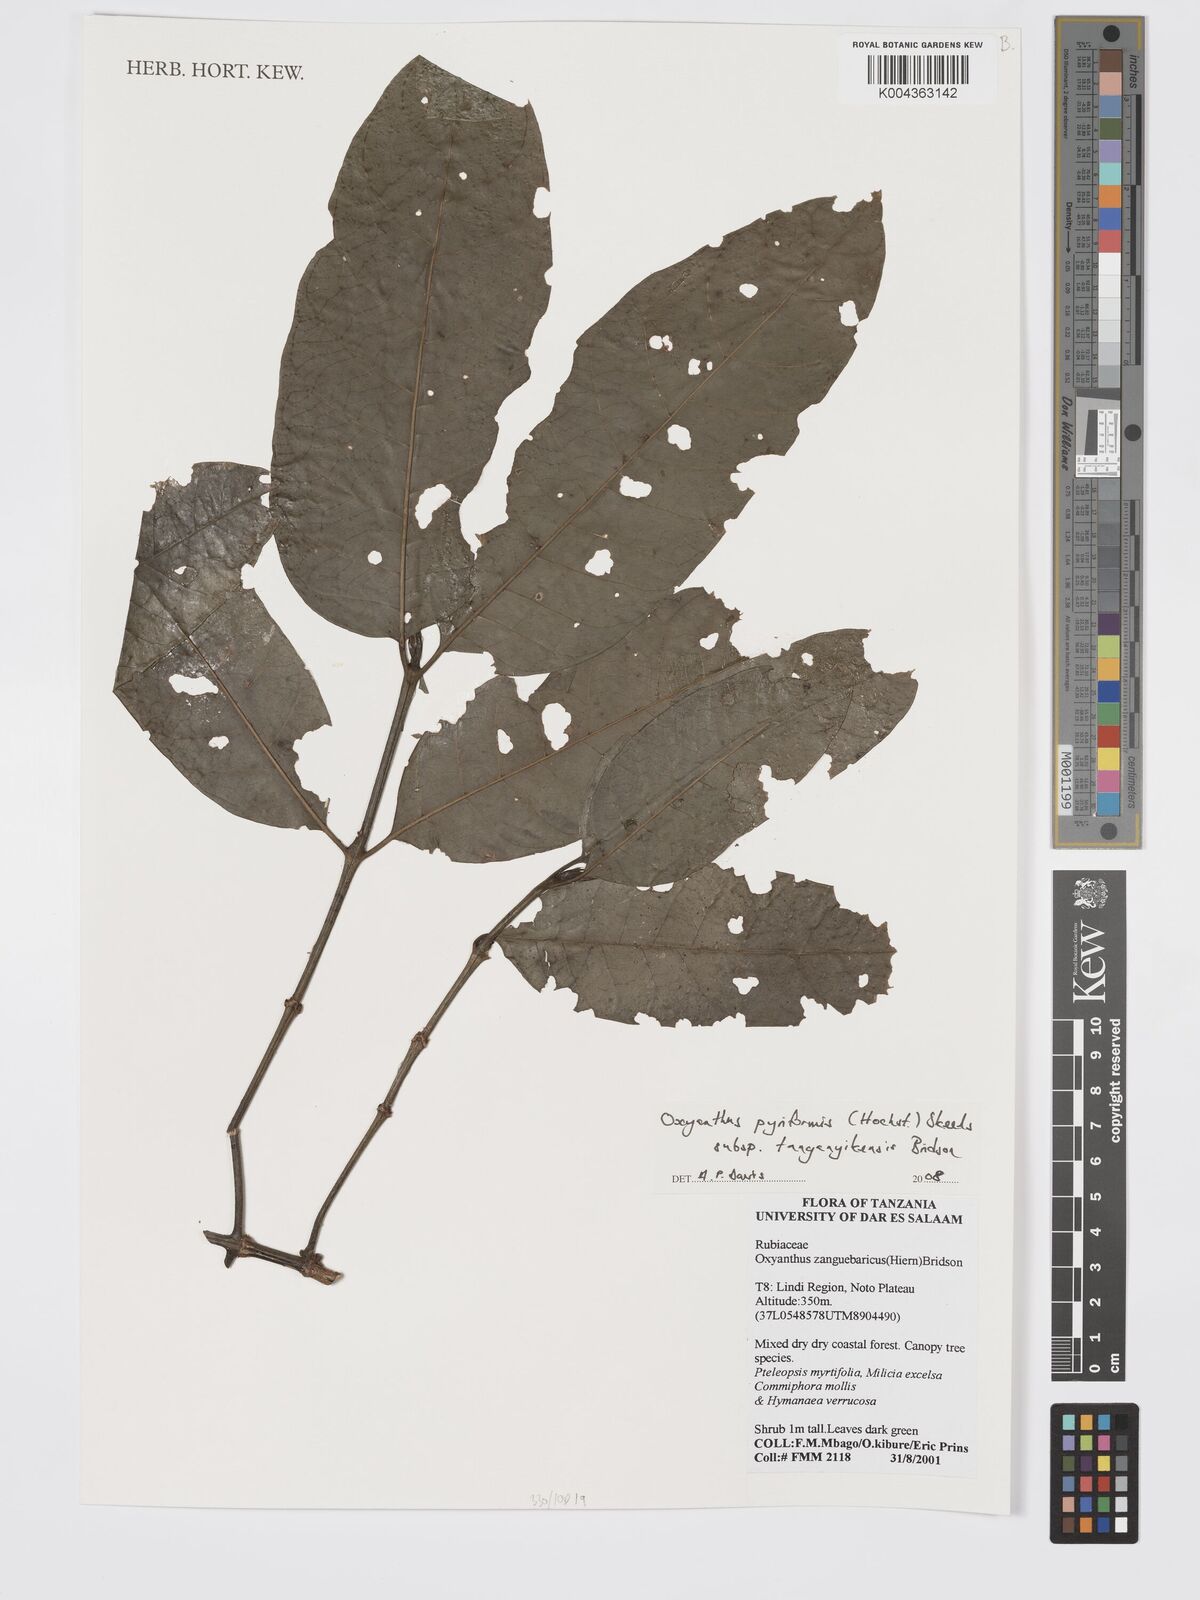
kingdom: Plantae
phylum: Tracheophyta
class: Magnoliopsida
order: Gentianales
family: Rubiaceae
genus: Oxyanthus
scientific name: Oxyanthus pyriformis
